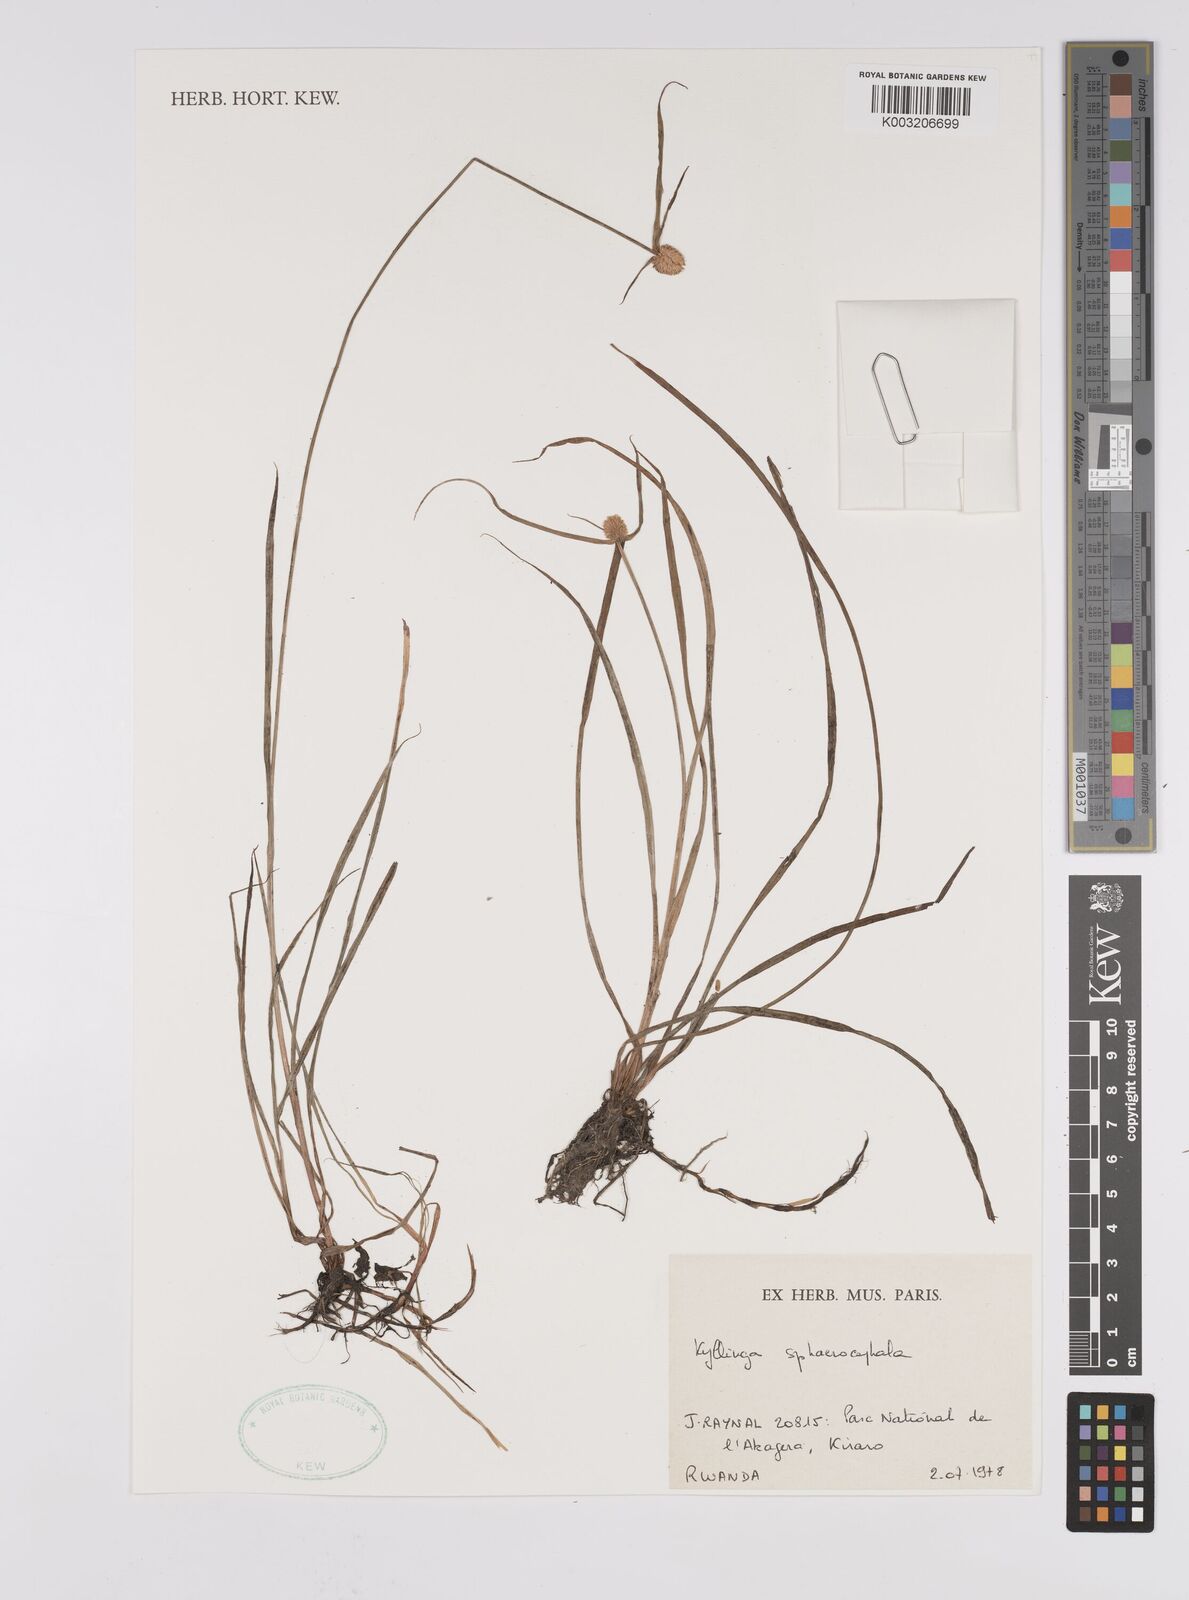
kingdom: Plantae
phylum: Tracheophyta
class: Liliopsida
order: Poales
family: Cyperaceae
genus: Cyperus
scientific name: Cyperus sphaerolepis
